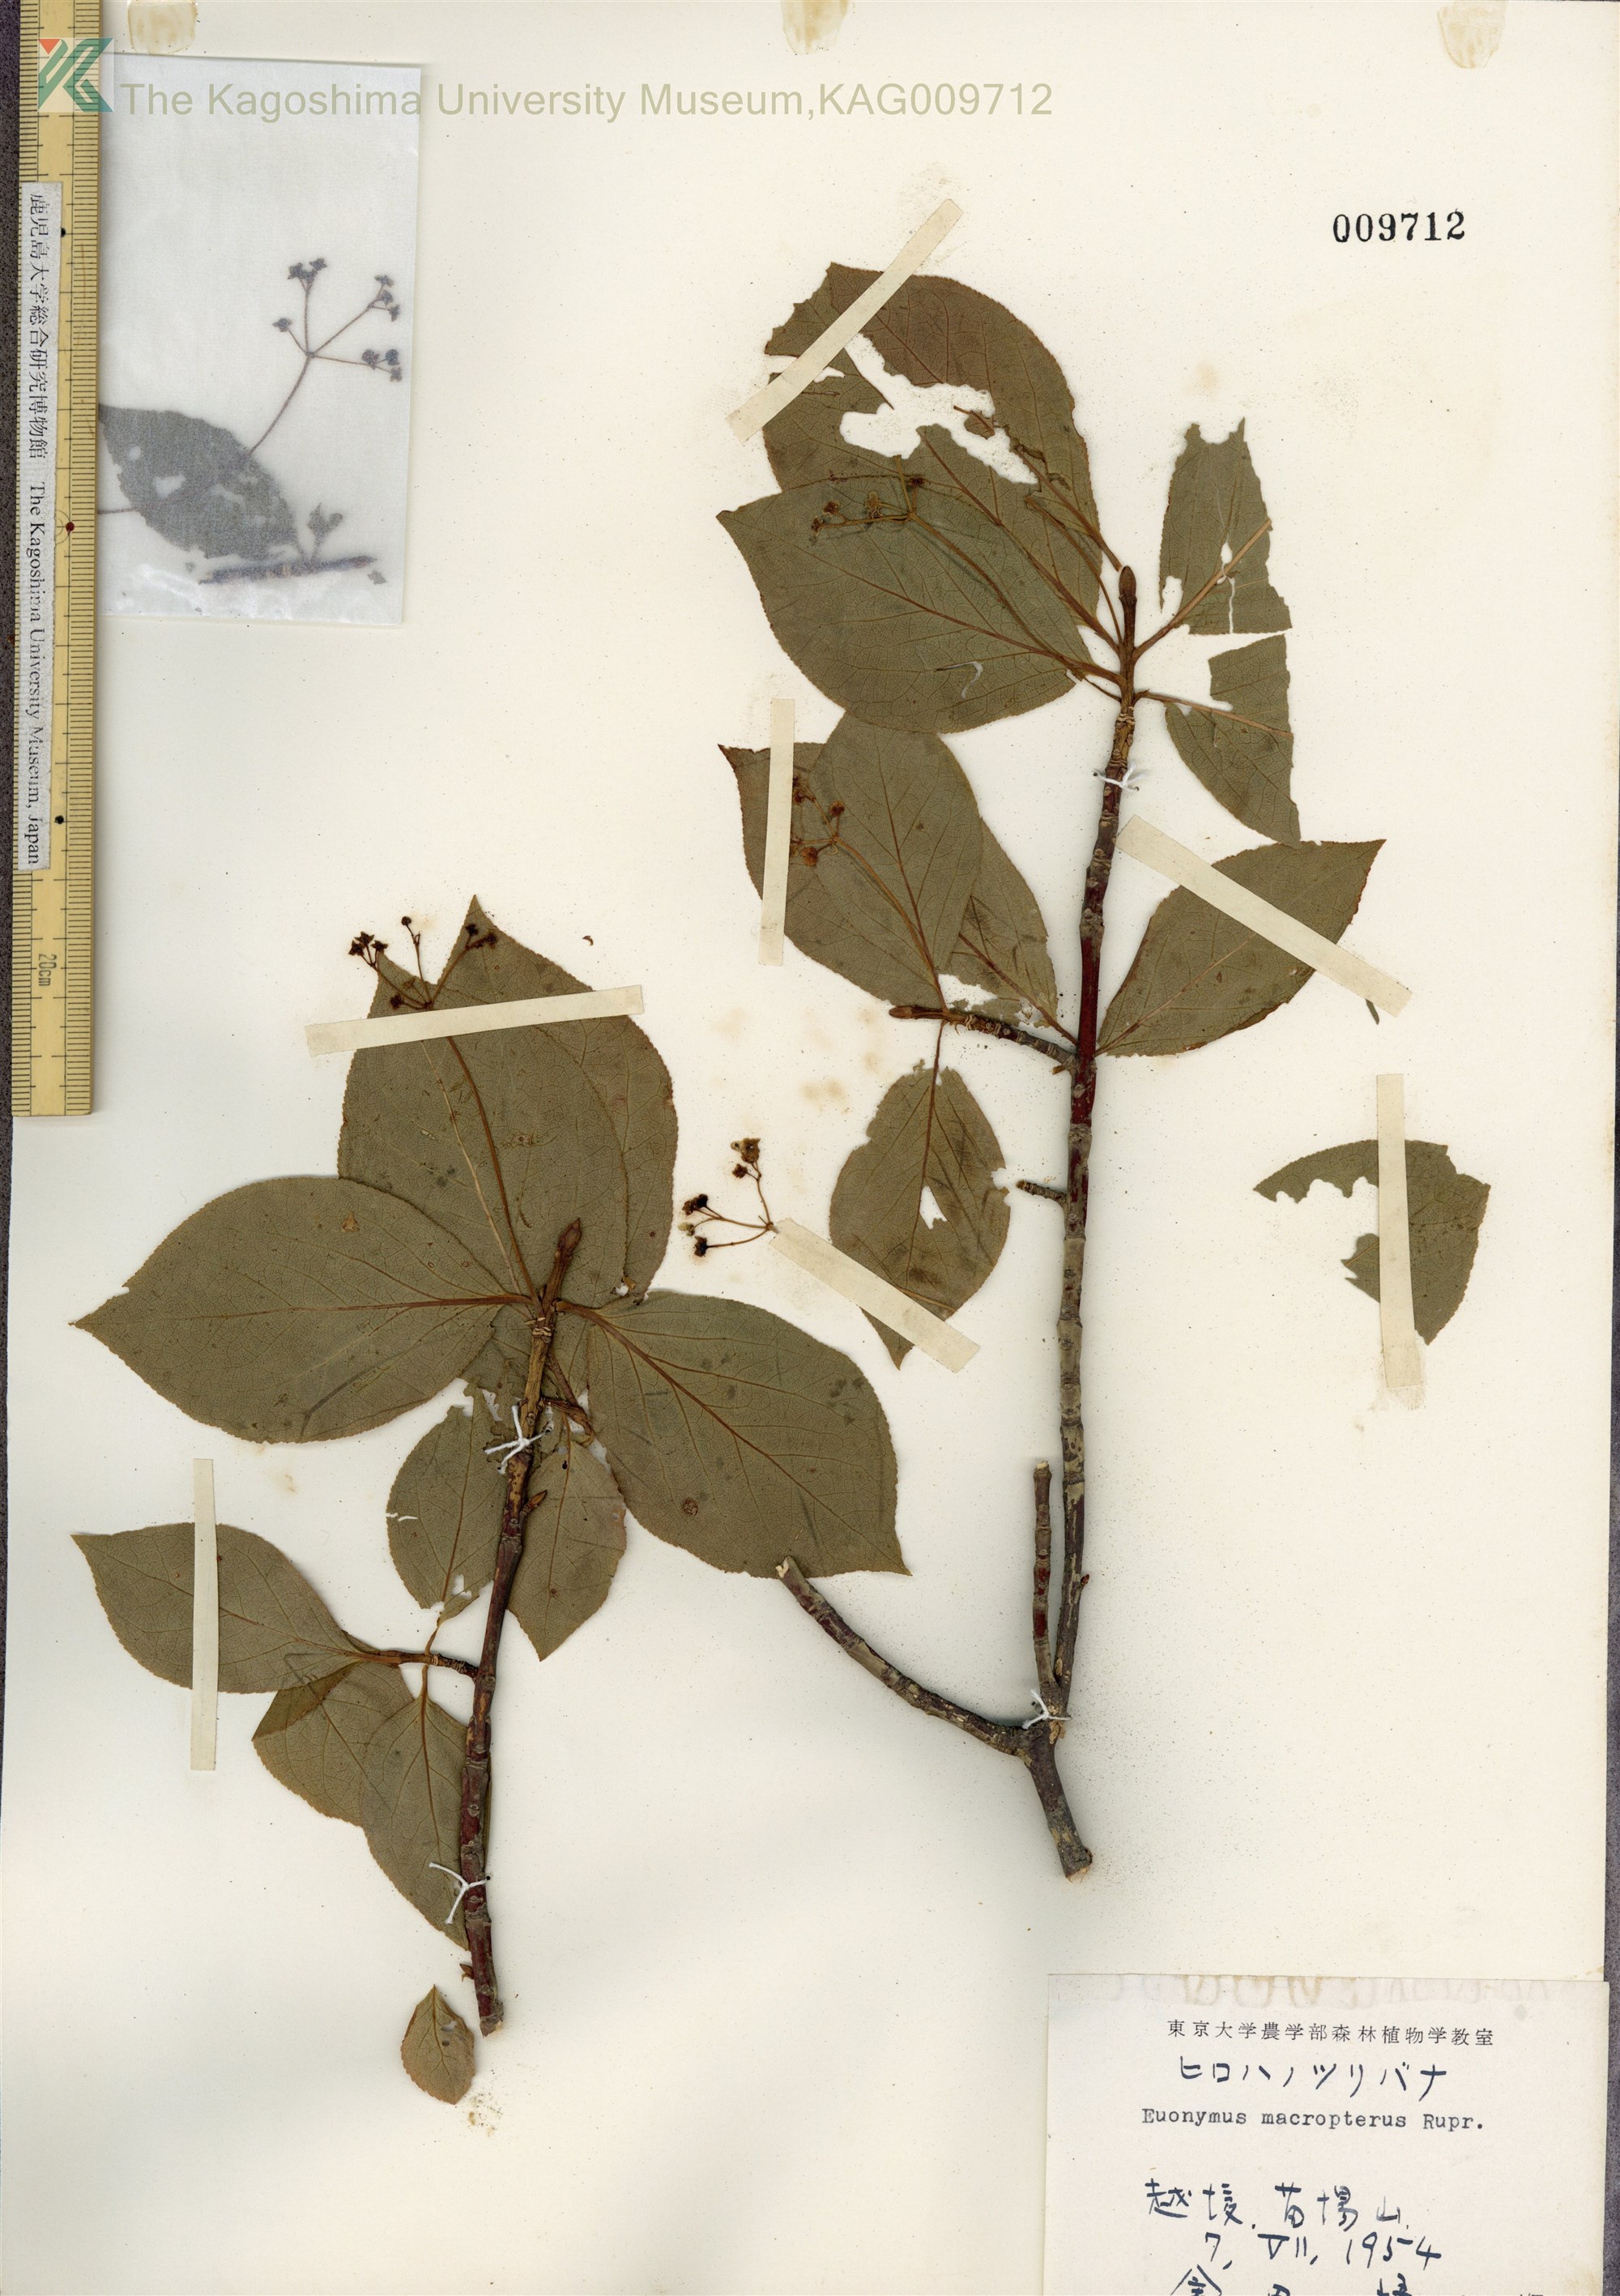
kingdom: Plantae
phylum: Tracheophyta
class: Magnoliopsida
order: Celastrales
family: Celastraceae
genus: Euonymus
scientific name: Euonymus macropterus
